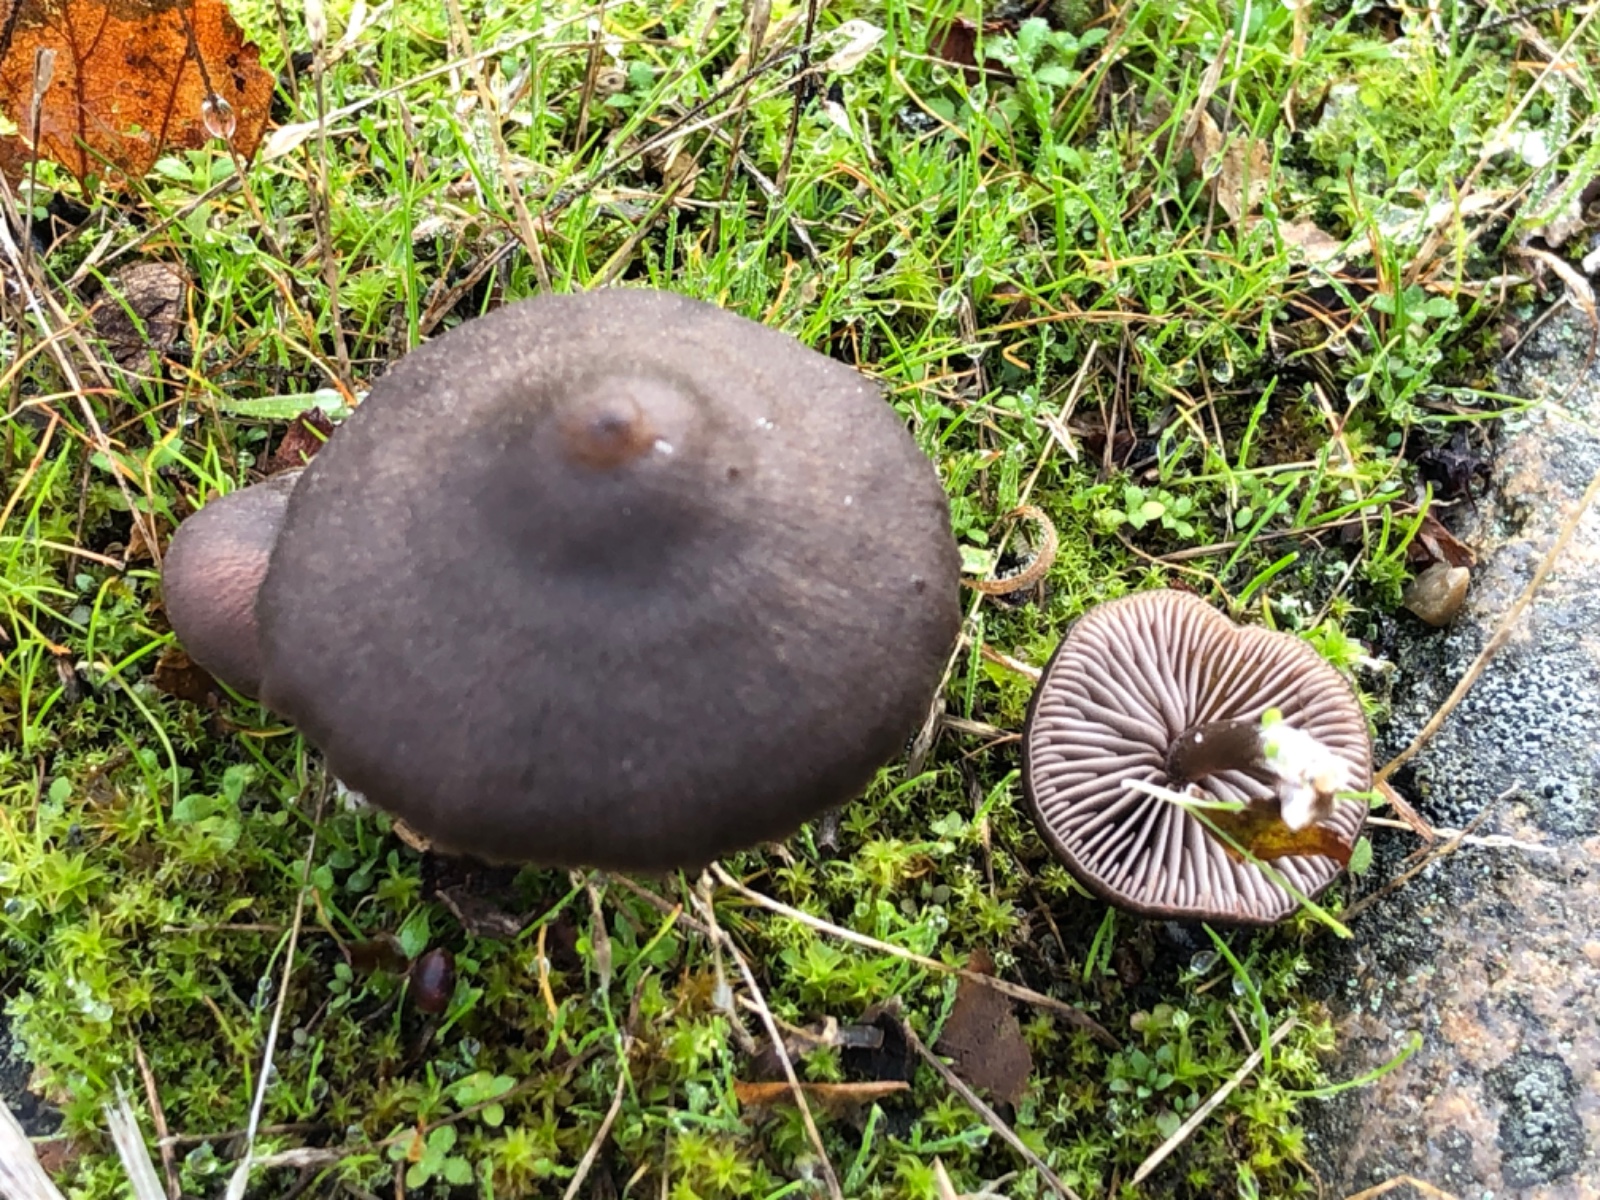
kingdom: Fungi
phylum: Basidiomycota
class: Agaricomycetes
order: Agaricales
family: Entolomataceae
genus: Entoloma
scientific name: Entoloma
